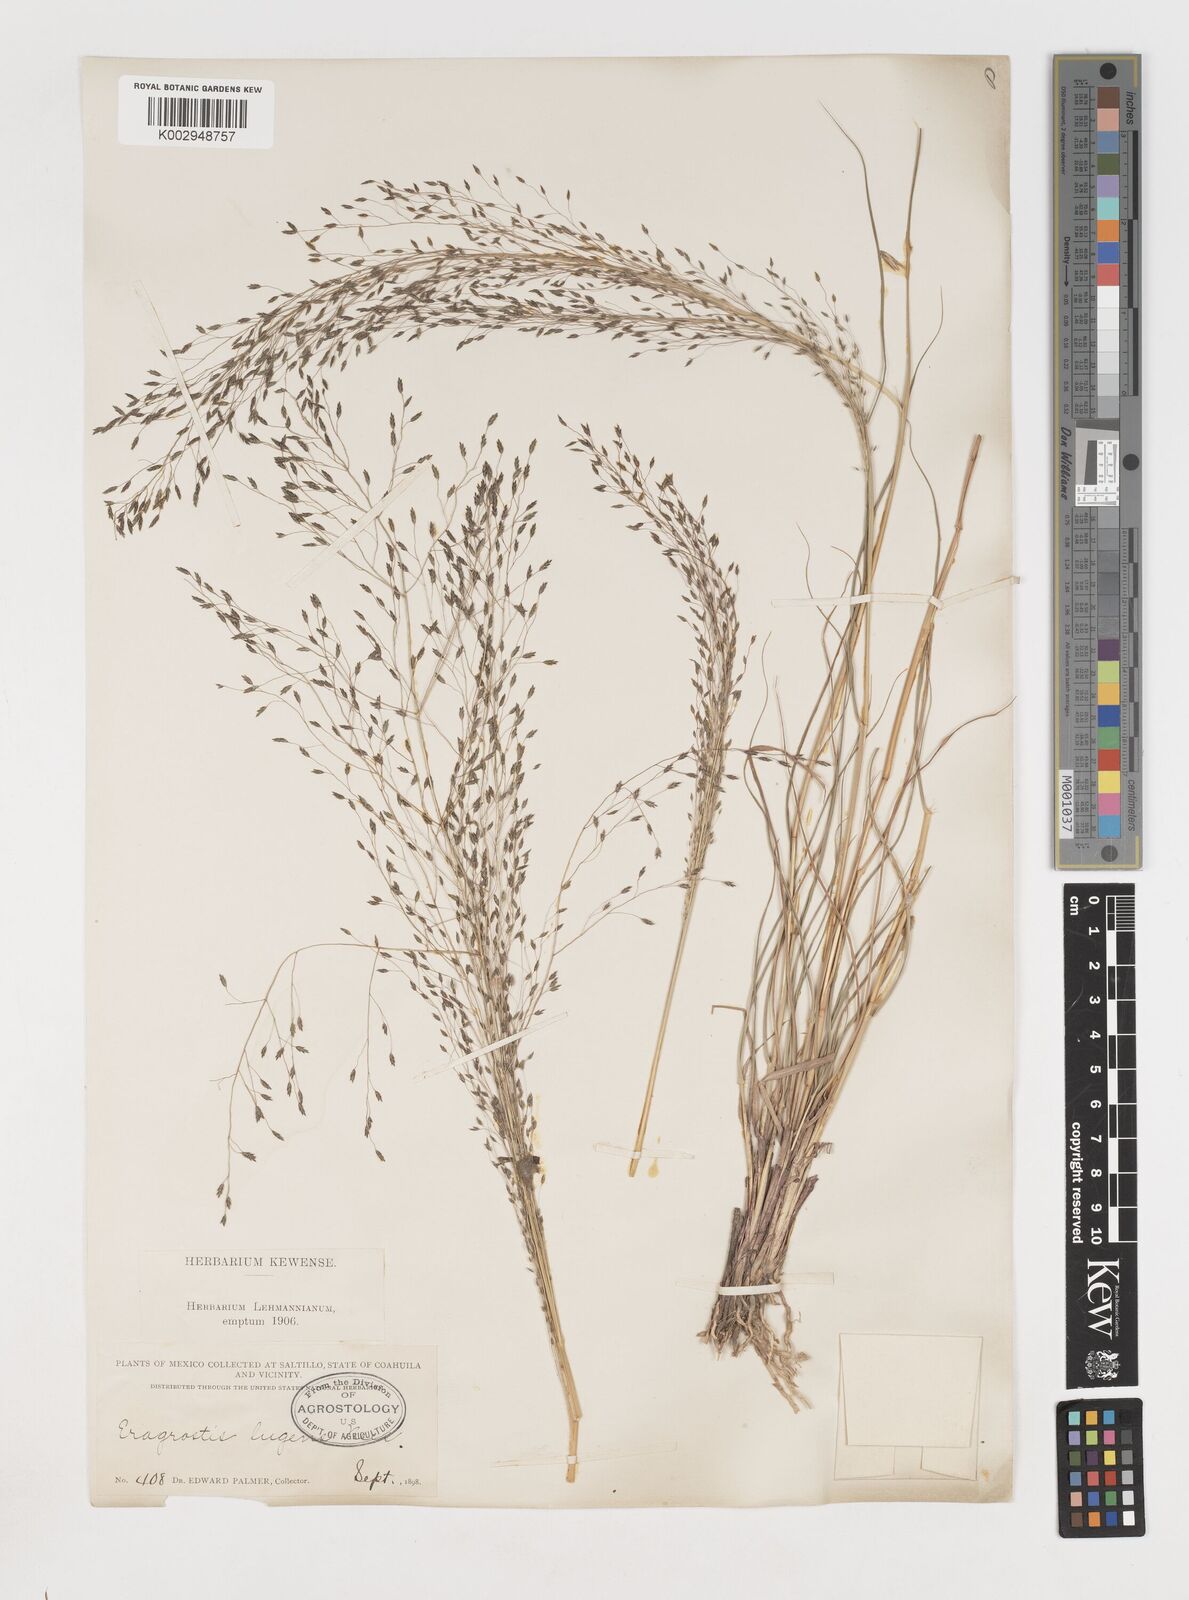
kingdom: Plantae
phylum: Tracheophyta
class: Liliopsida
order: Poales
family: Poaceae
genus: Eragrostis
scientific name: Eragrostis
